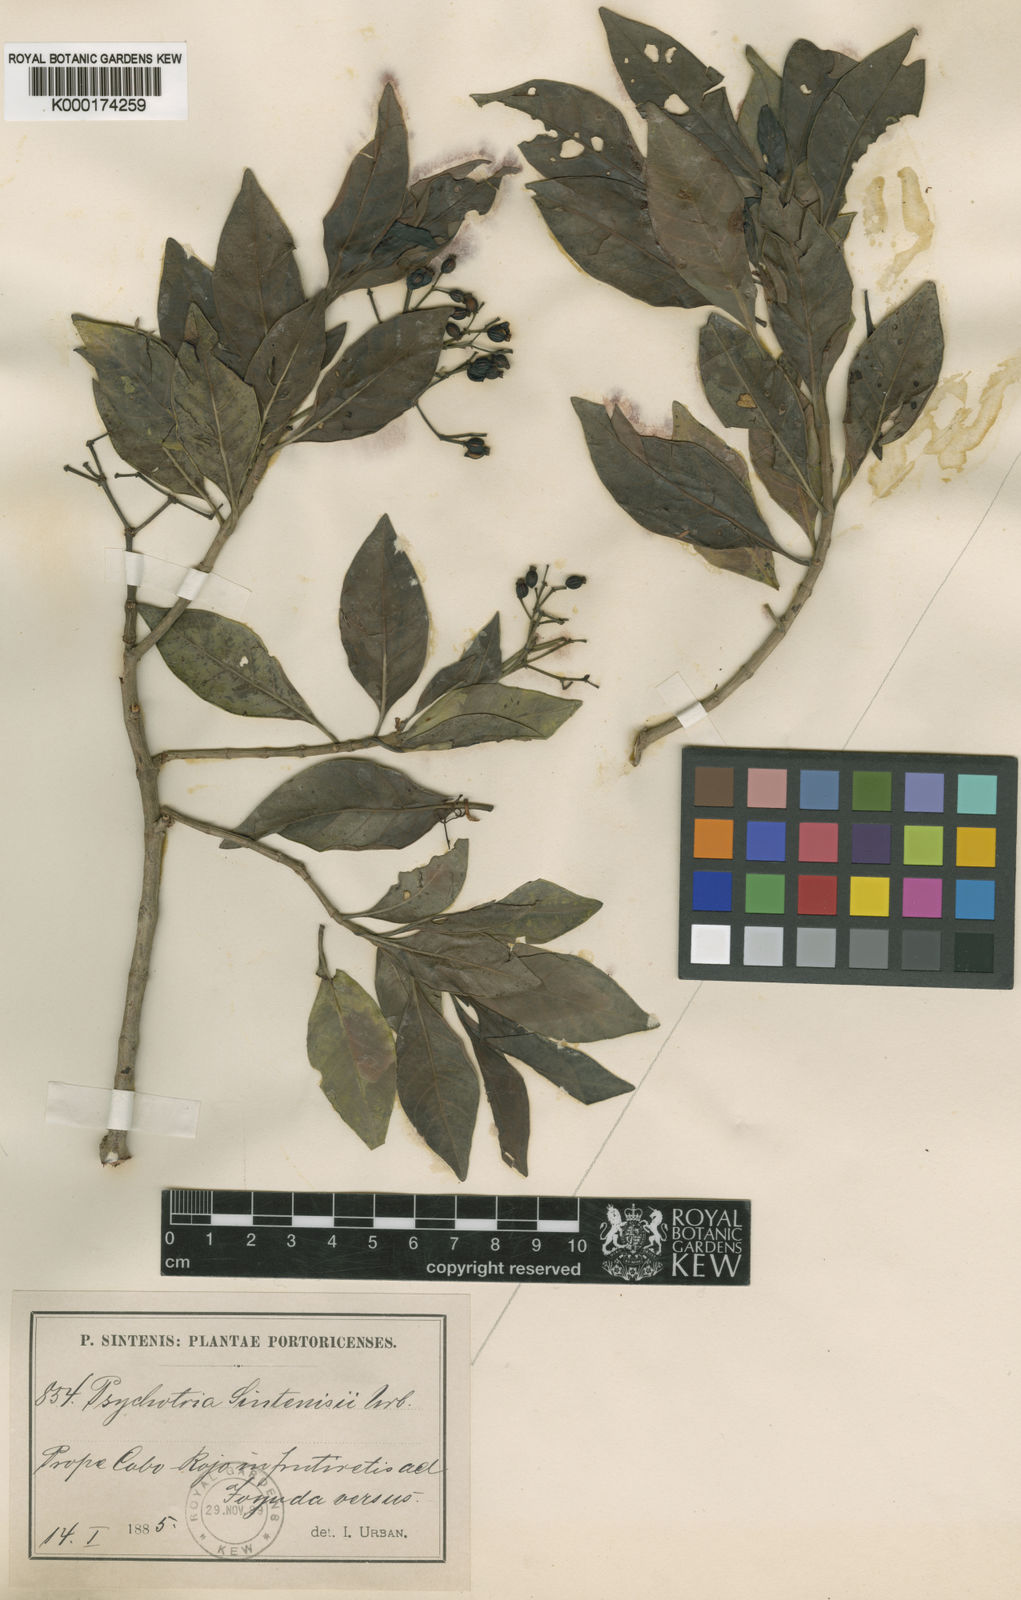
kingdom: Plantae
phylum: Tracheophyta
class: Magnoliopsida
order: Gentianales
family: Rubiaceae
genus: Psychotria
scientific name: Psychotria revoluta
